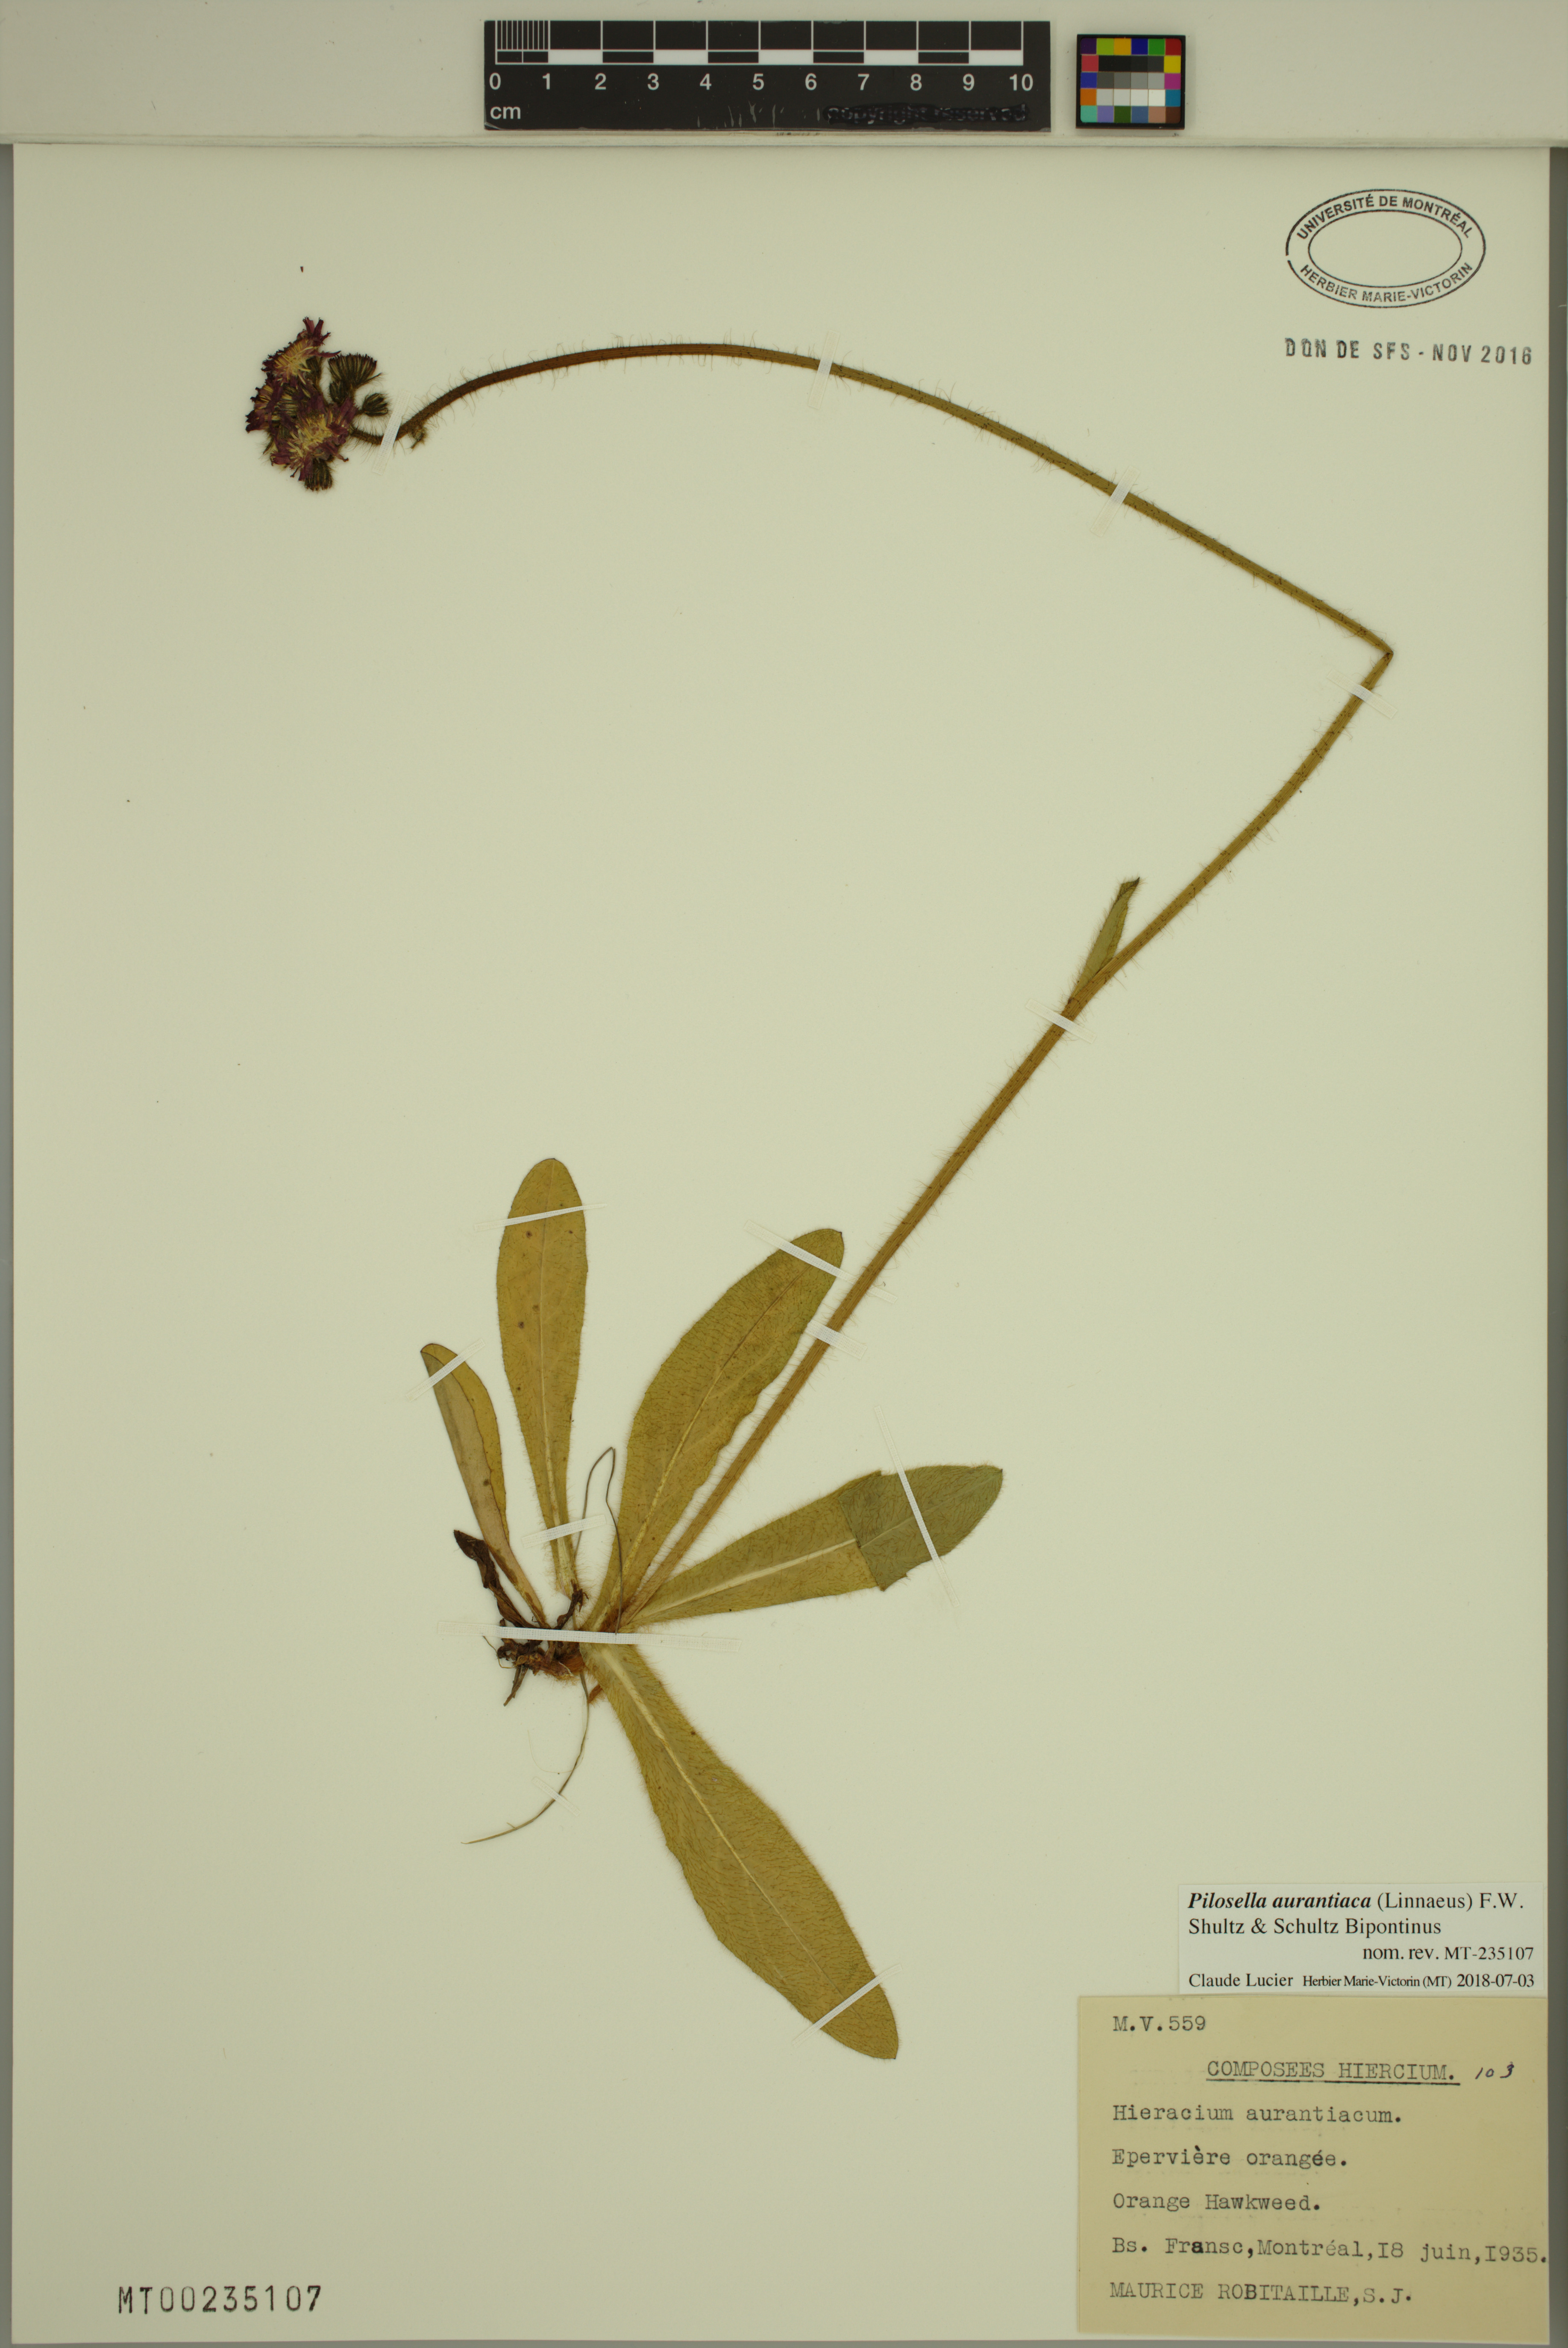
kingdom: Plantae
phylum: Tracheophyta
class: Magnoliopsida
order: Asterales
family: Asteraceae
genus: Pilosella
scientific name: Pilosella aurantiaca
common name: Fox-and-cubs
